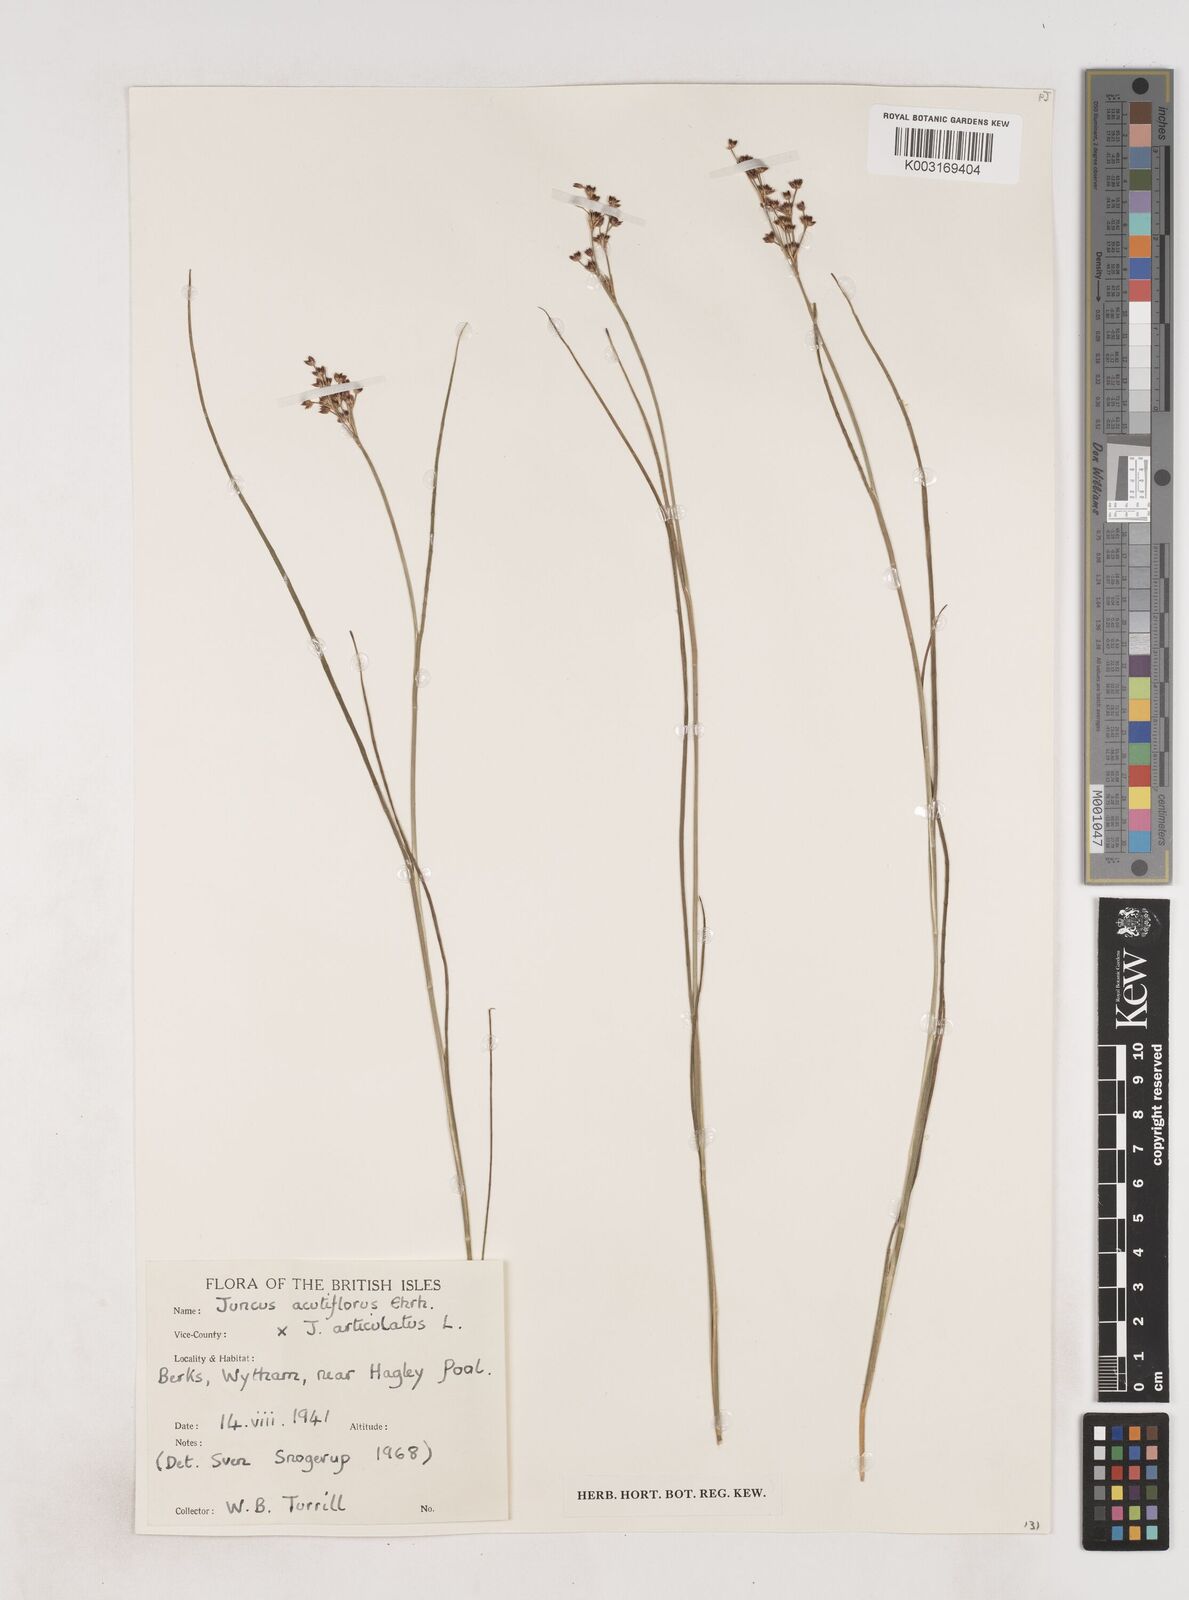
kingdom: Plantae
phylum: Tracheophyta
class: Liliopsida
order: Poales
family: Juncaceae
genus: Juncus
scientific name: Juncus acutiflorus
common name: Sharp-flowered rush
